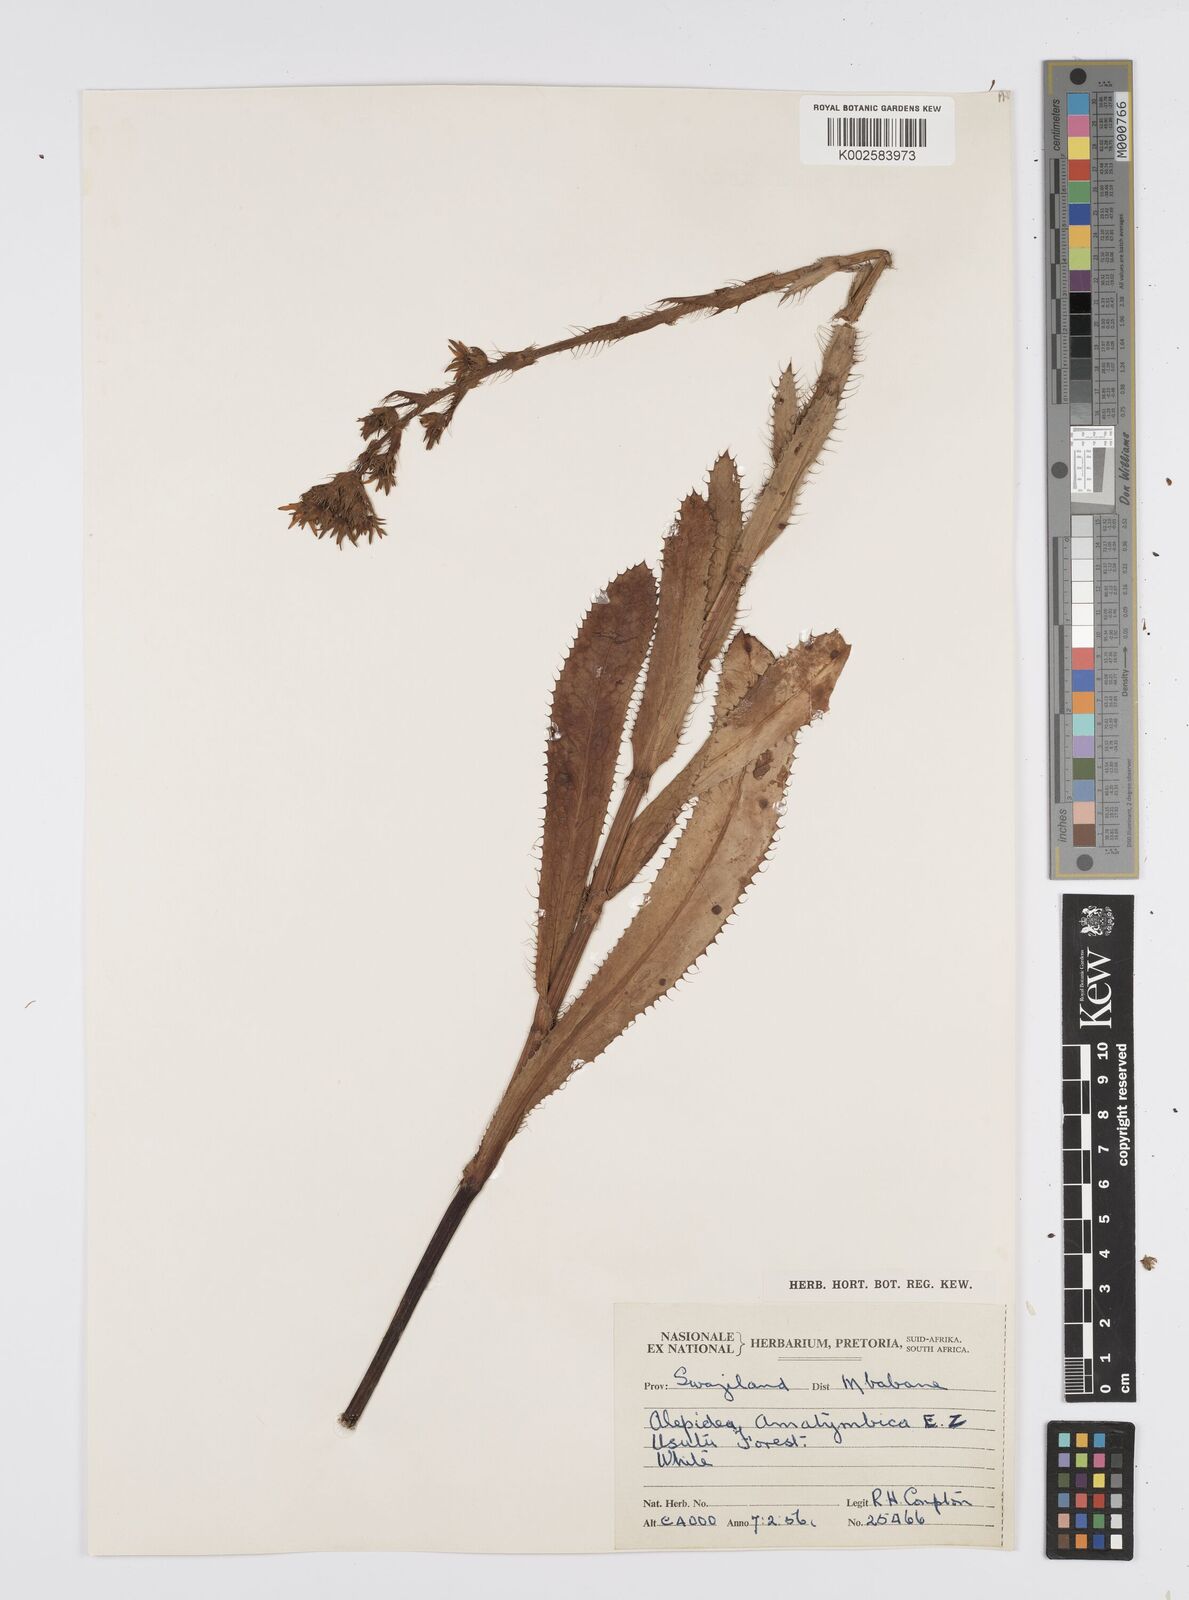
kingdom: Plantae
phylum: Tracheophyta
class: Magnoliopsida
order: Apiales
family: Apiaceae
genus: Alepidea
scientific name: Alepidea
